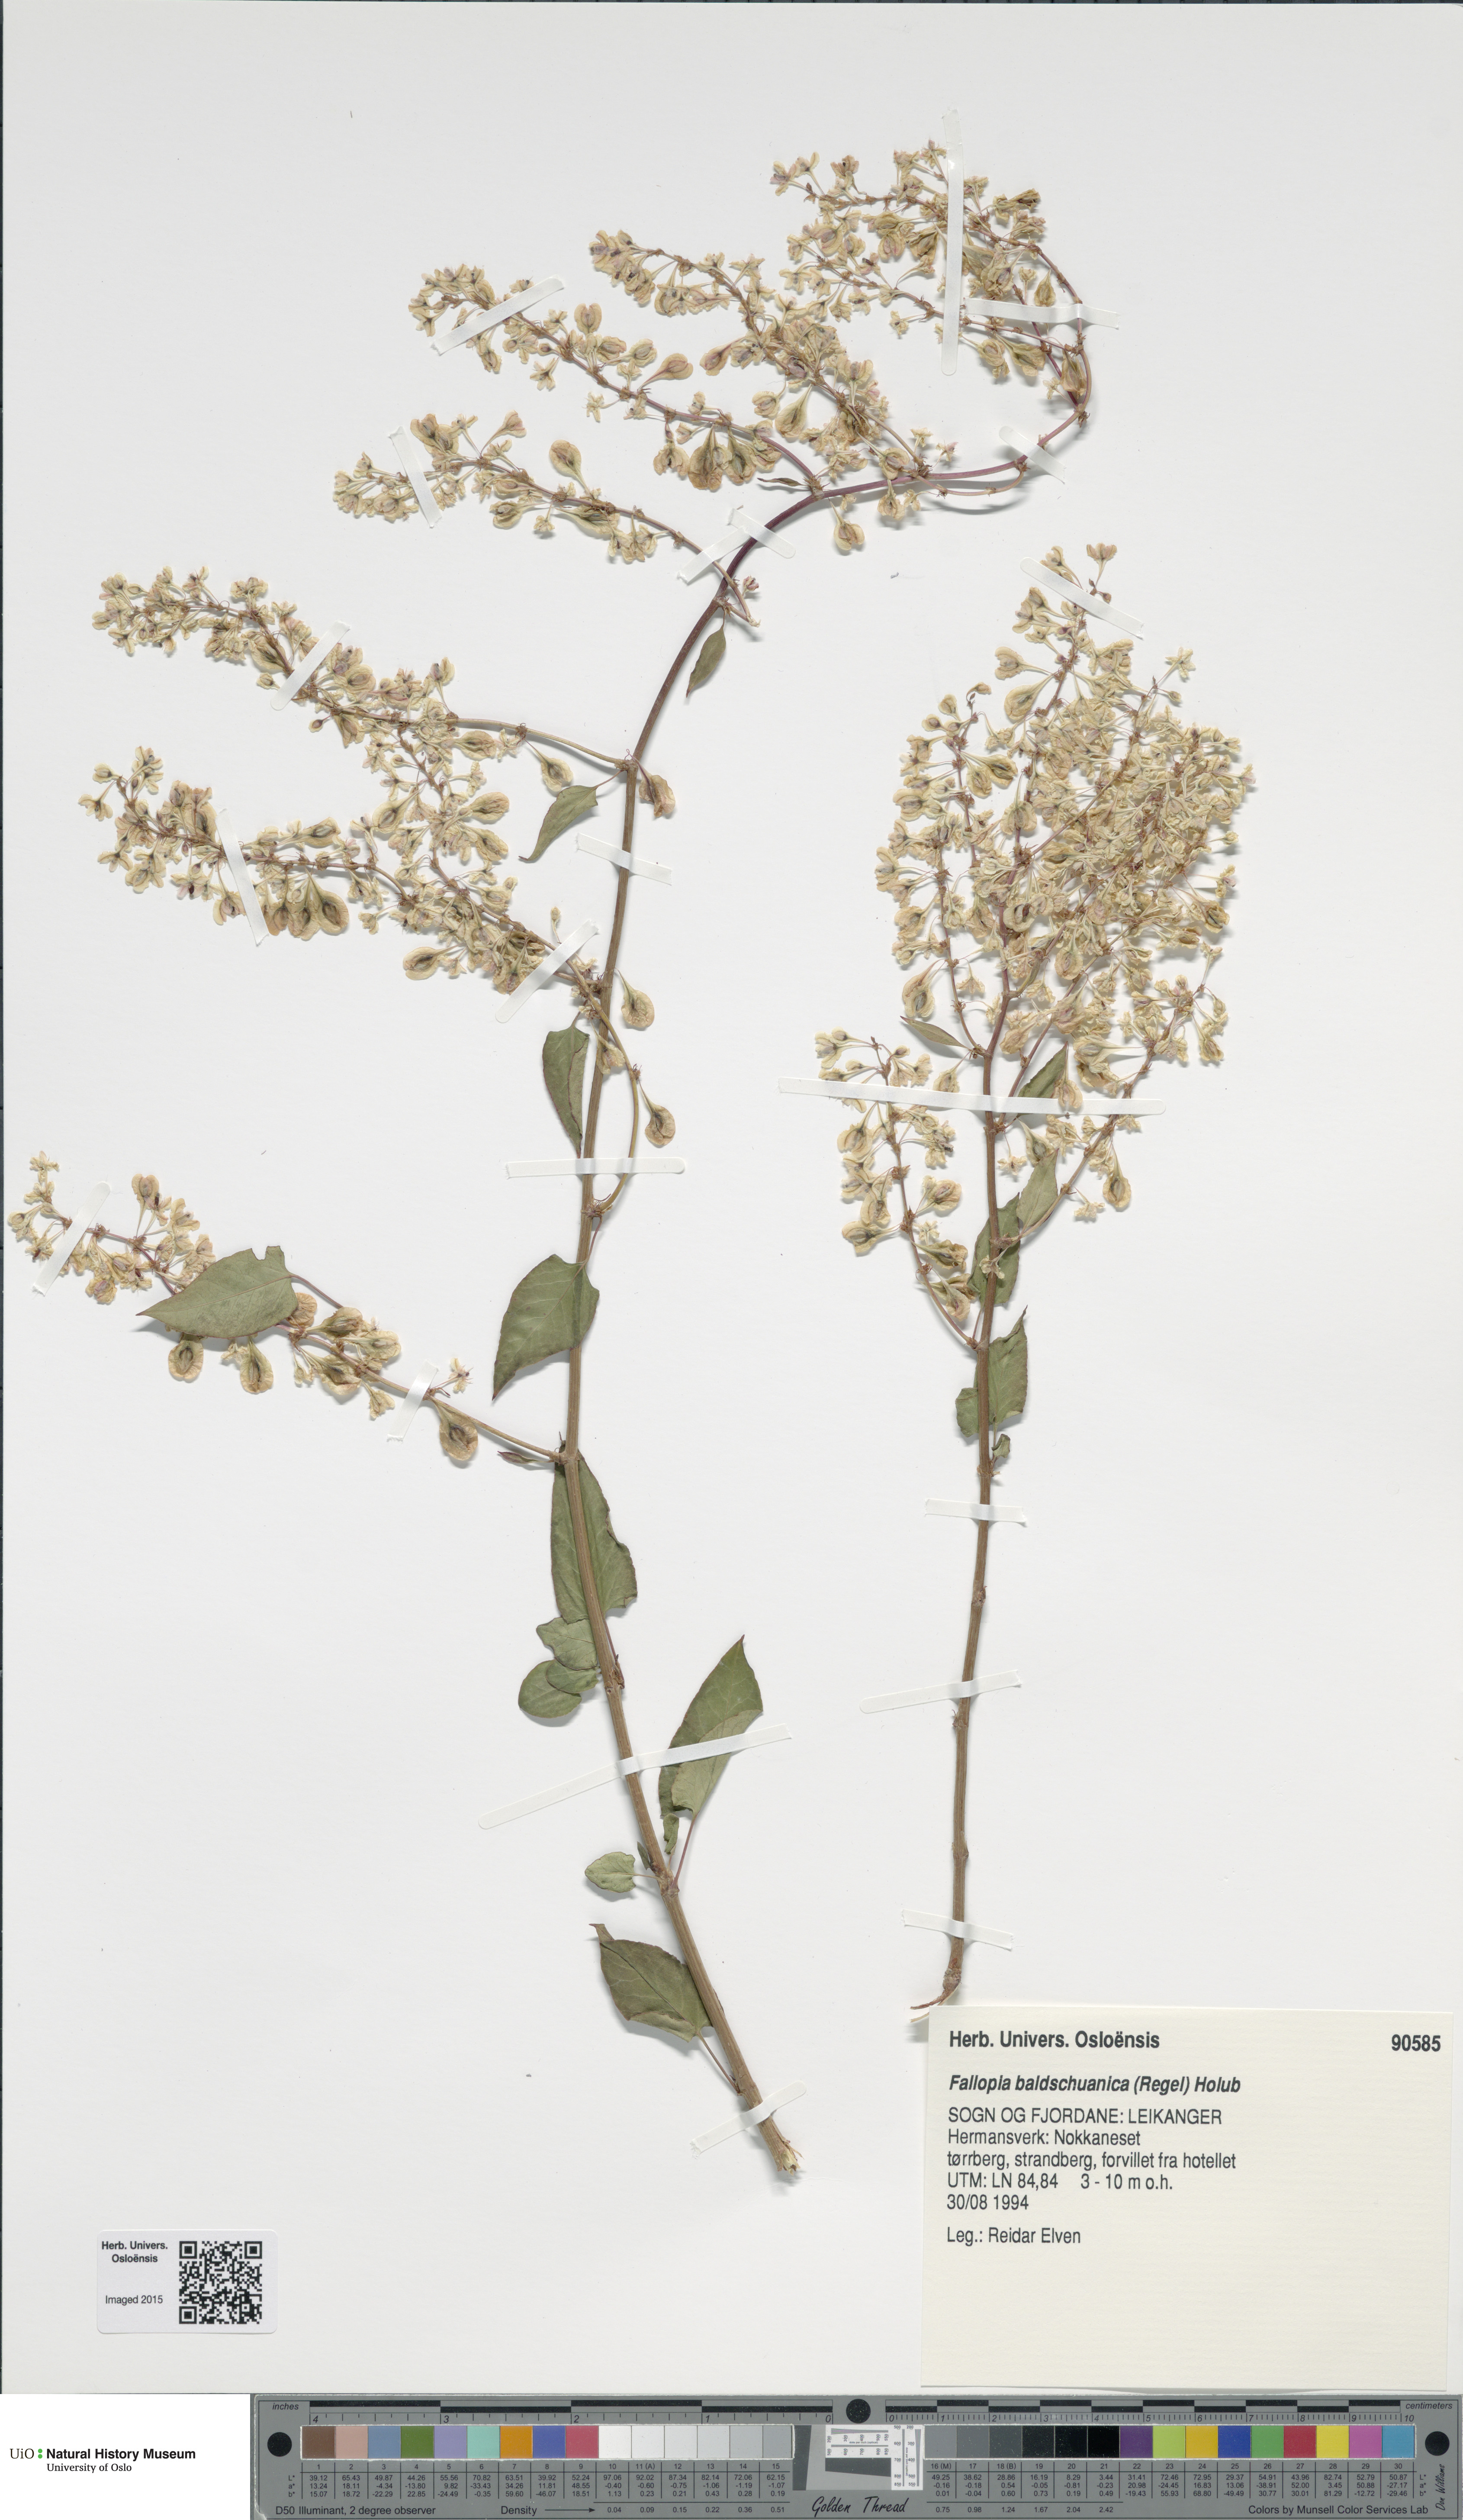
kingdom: Plantae
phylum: Tracheophyta
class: Magnoliopsida
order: Caryophyllales
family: Polygonaceae
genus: Fallopia
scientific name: Fallopia baldschuanica
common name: Russian-vine
